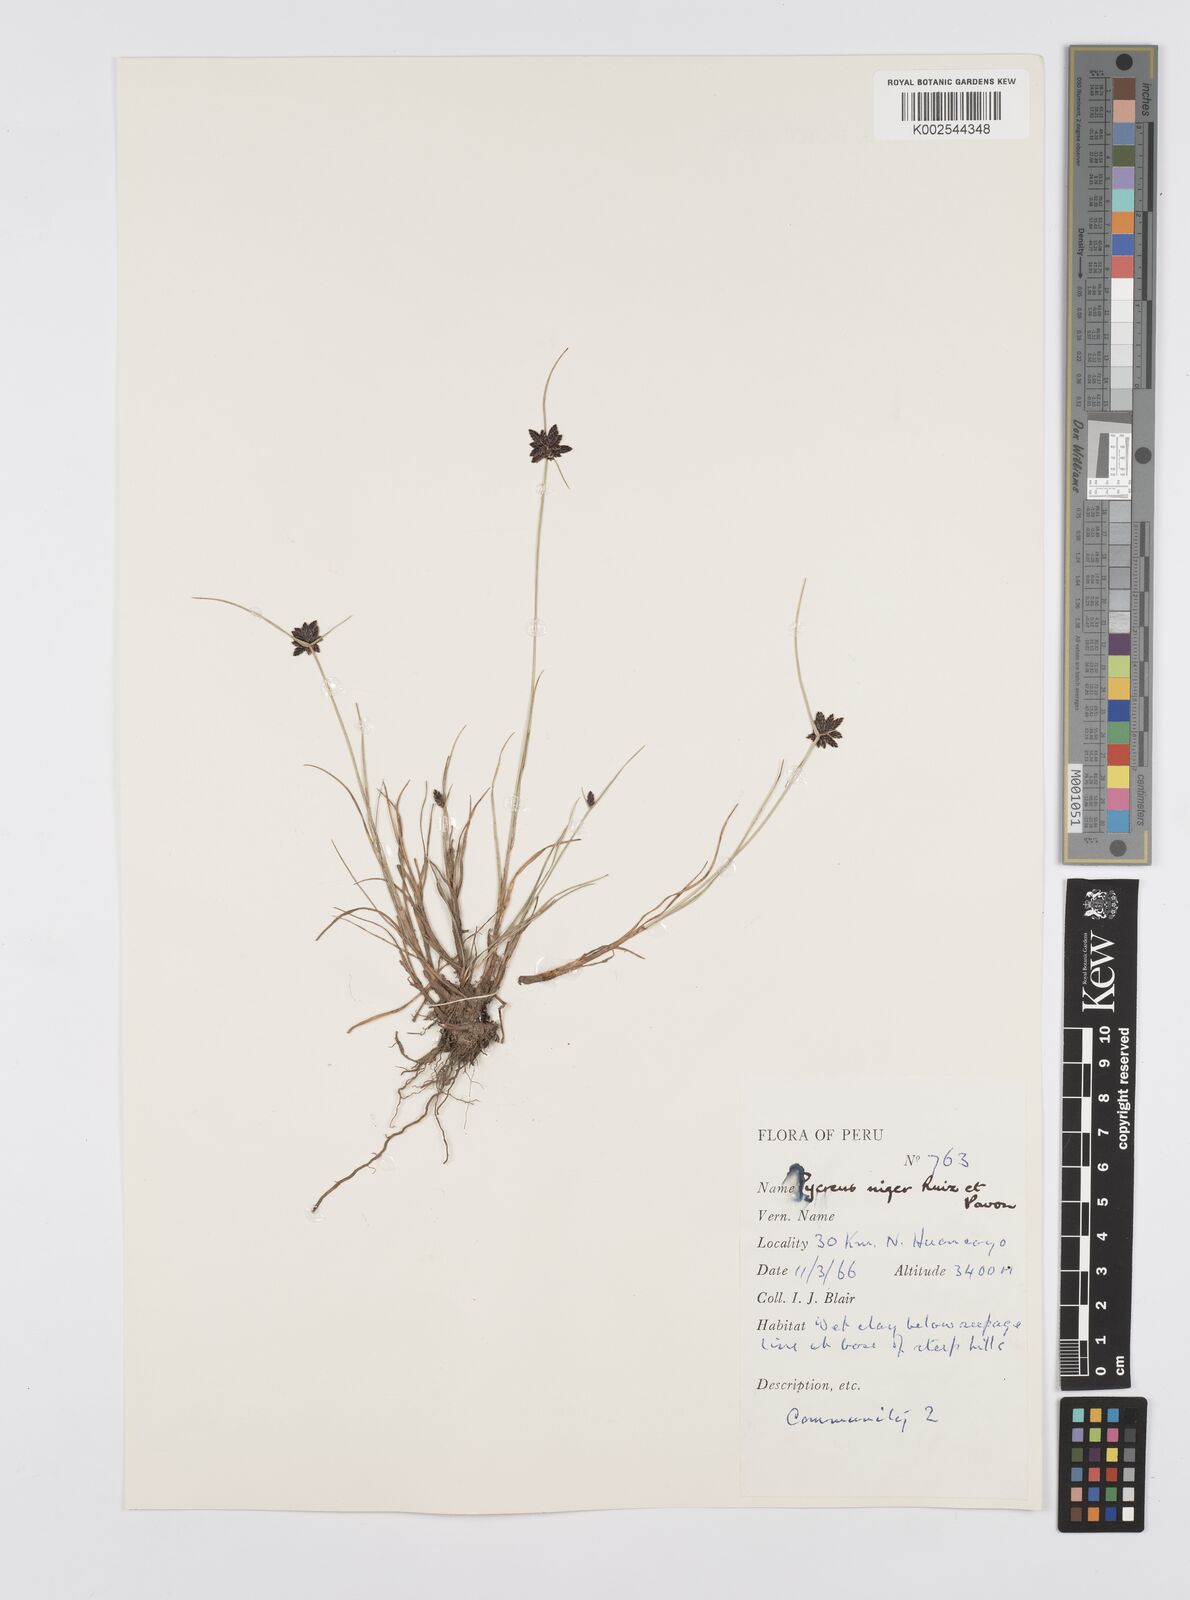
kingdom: Plantae
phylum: Tracheophyta
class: Liliopsida
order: Poales
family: Cyperaceae
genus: Cyperus
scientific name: Cyperus melanostachyus
